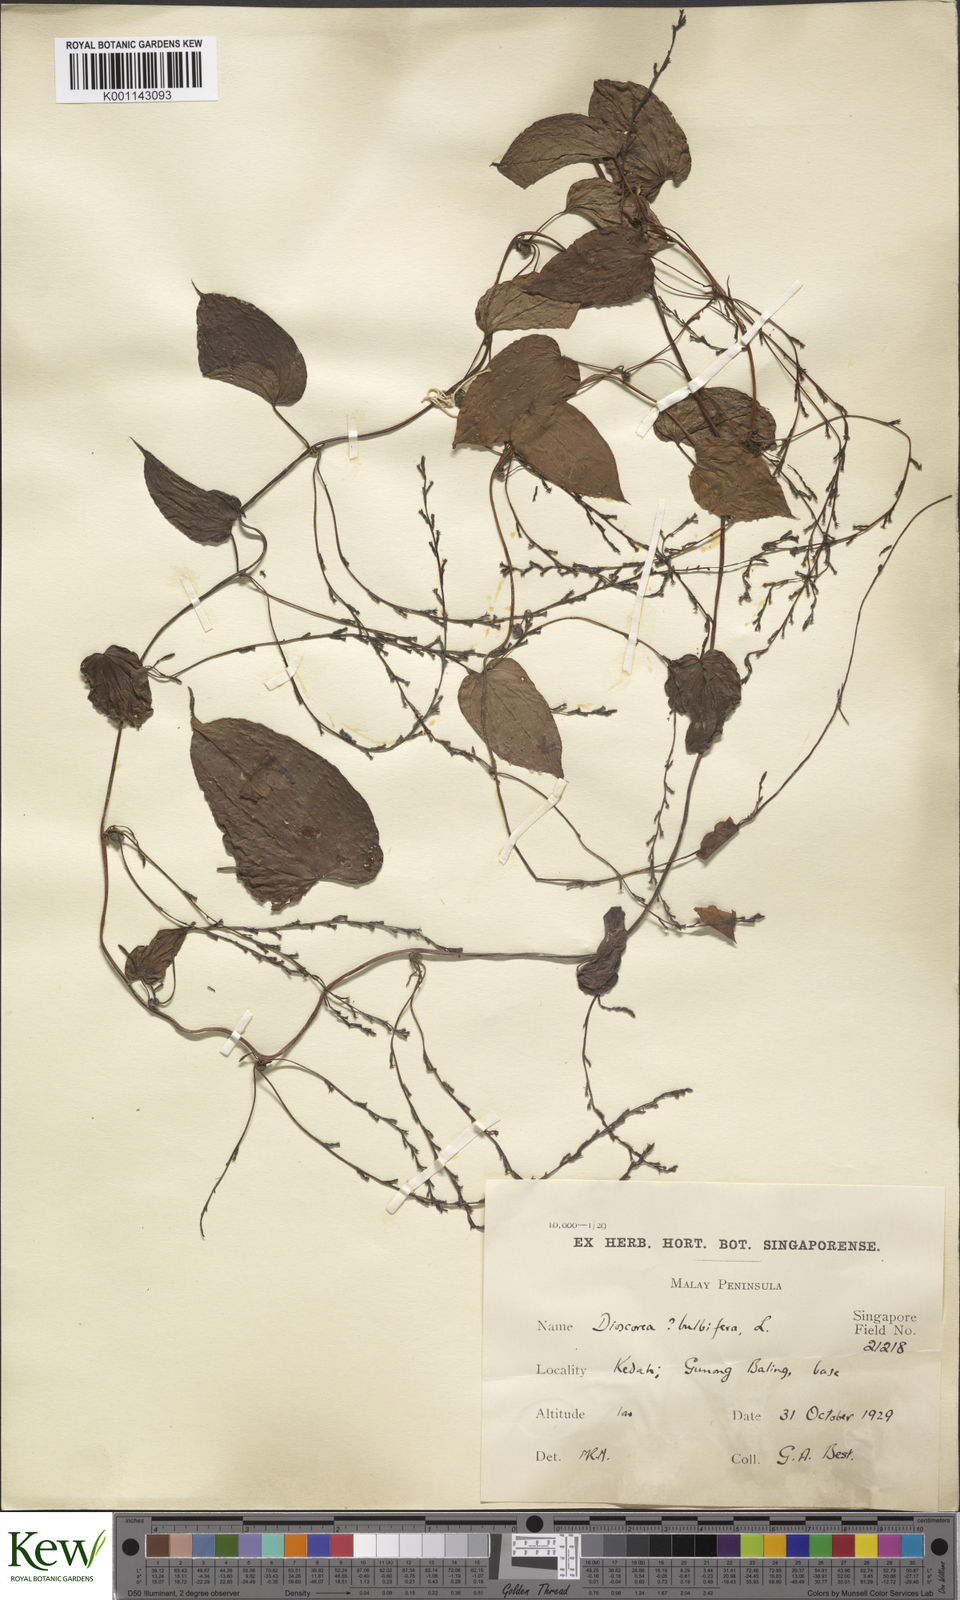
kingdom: Plantae
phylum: Tracheophyta
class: Liliopsida
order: Dioscoreales
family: Dioscoreaceae
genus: Dioscorea
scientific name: Dioscorea bulbifera
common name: Air yam
